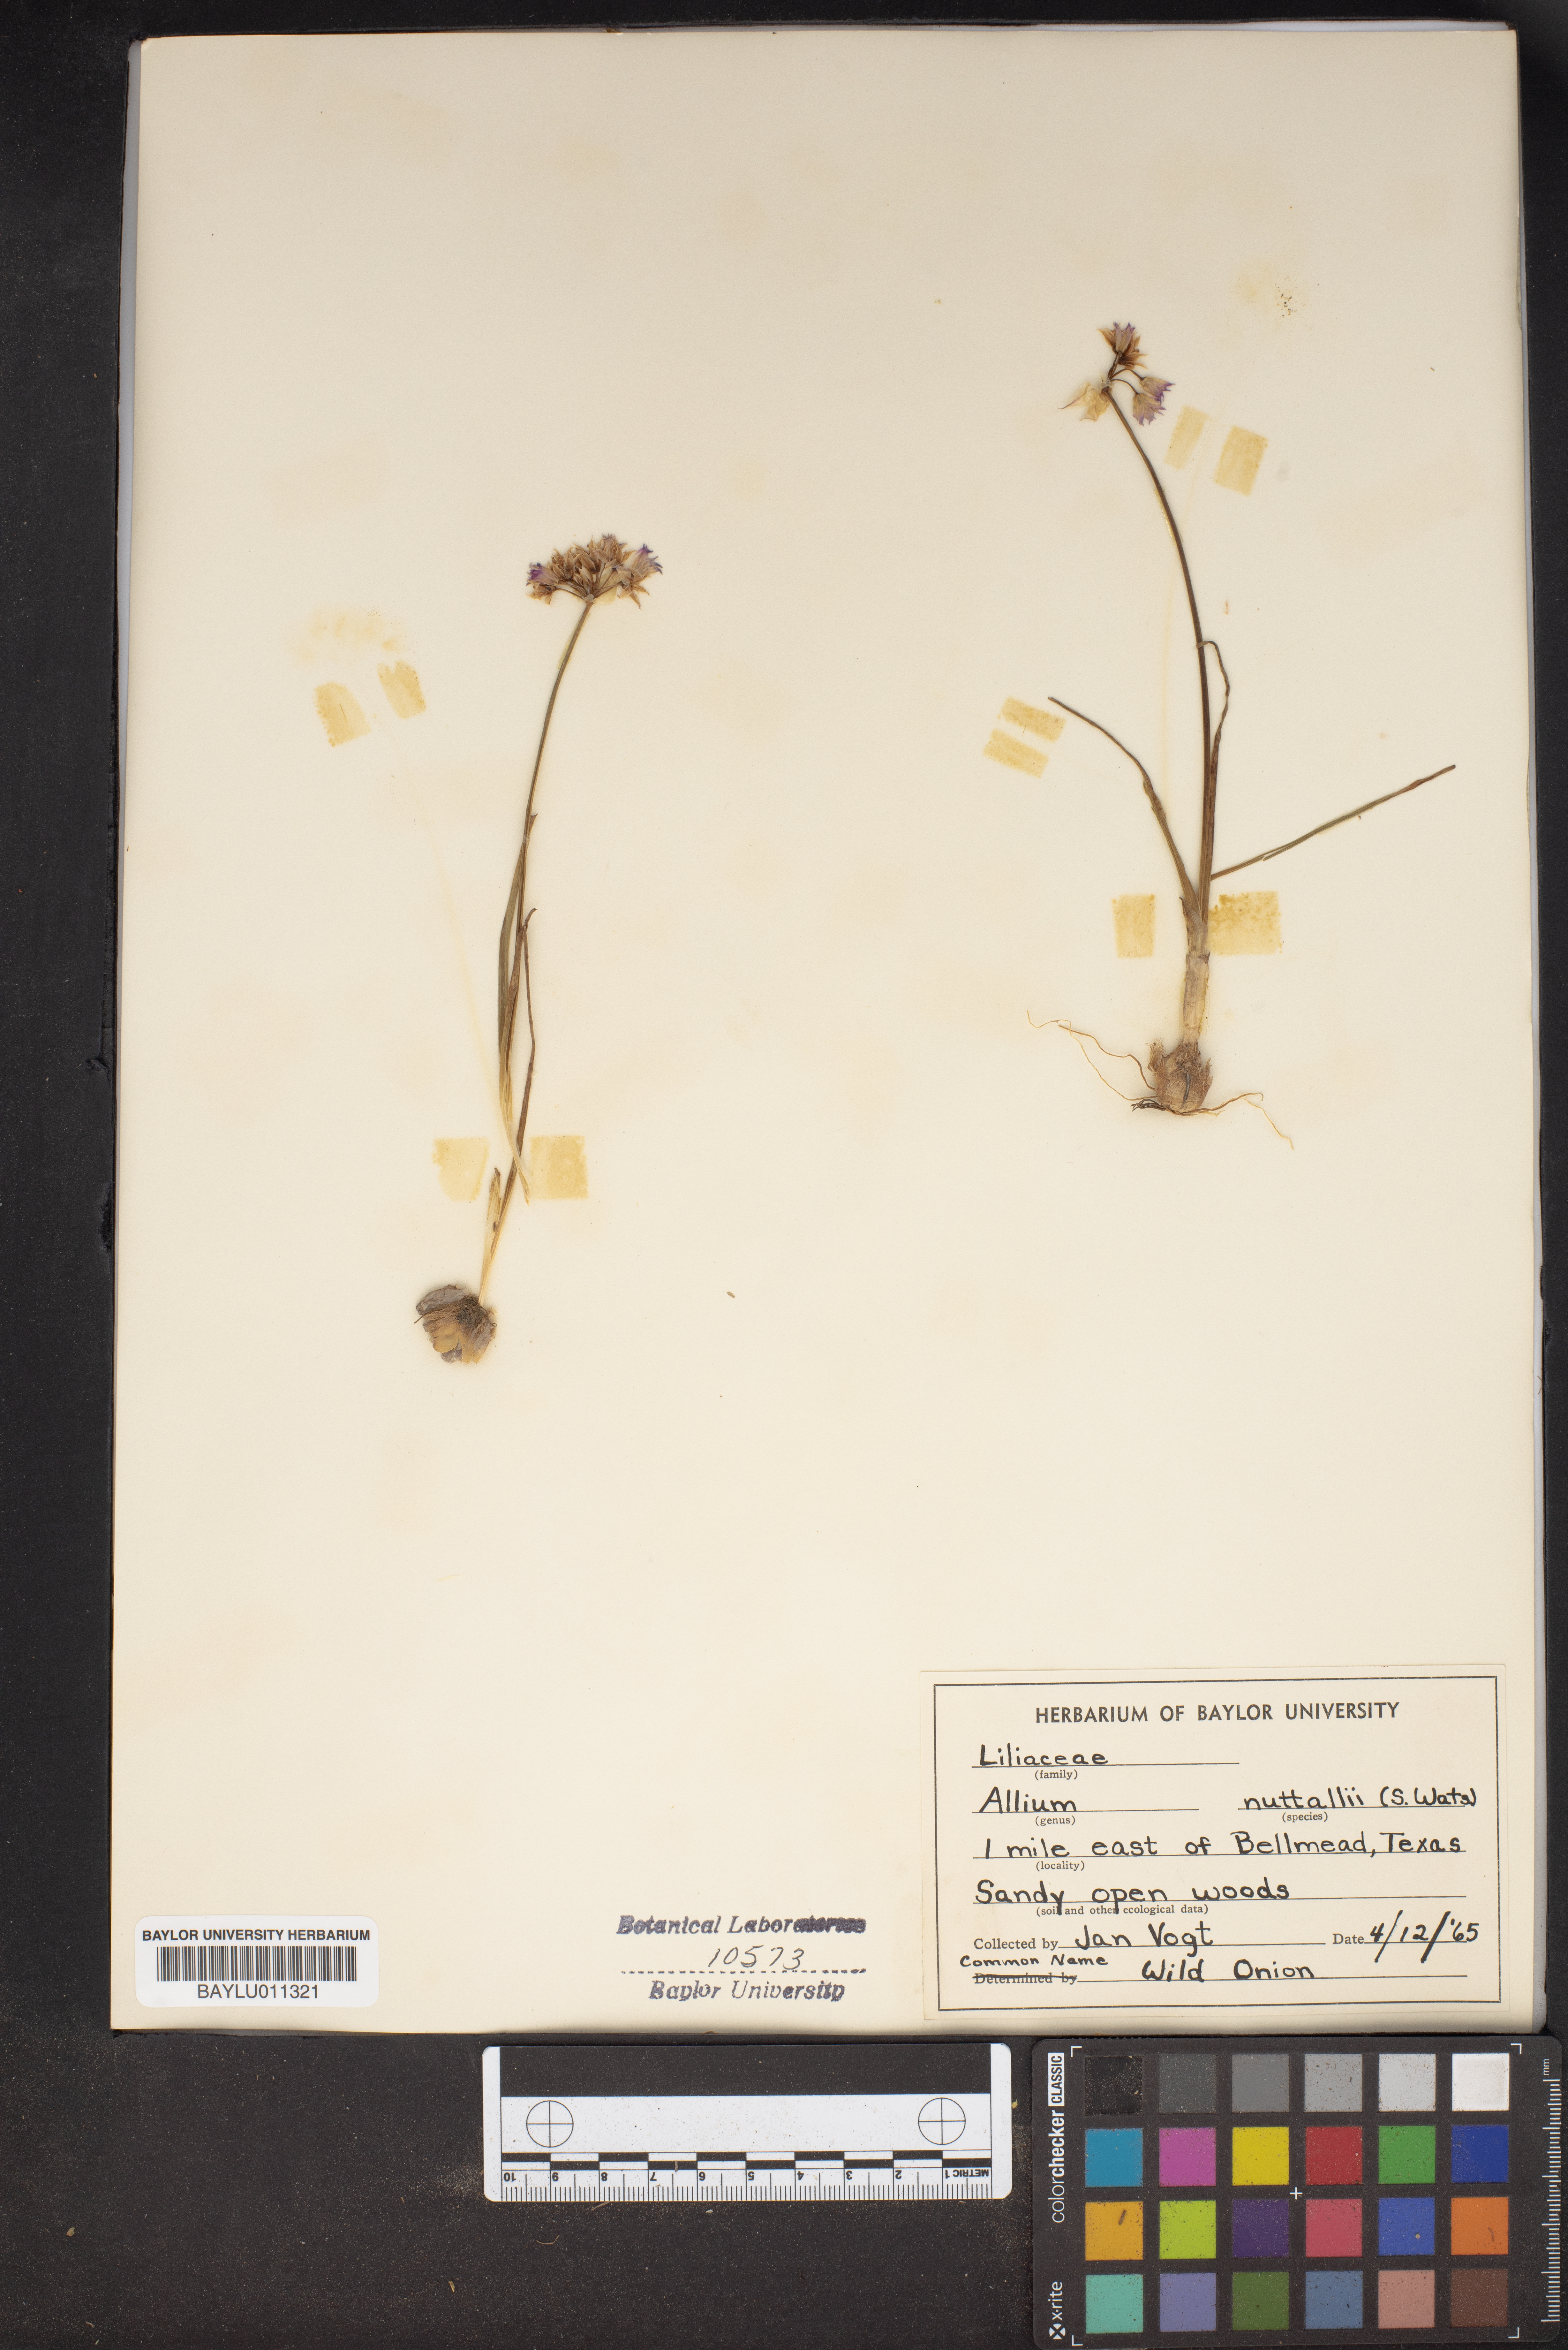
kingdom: Plantae
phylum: Tracheophyta
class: Liliopsida
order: Asparagales
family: Amaryllidaceae
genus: Allium
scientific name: Allium drummondii
